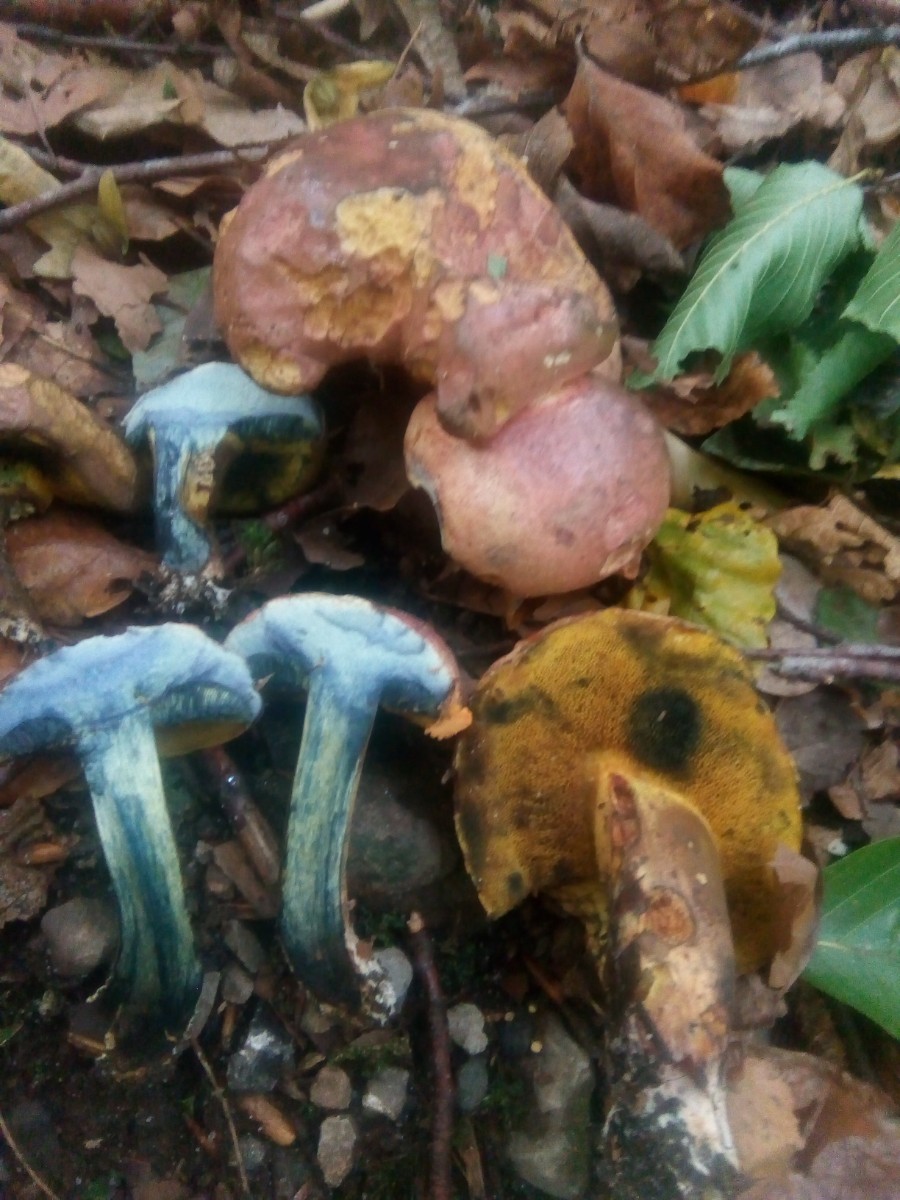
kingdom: Fungi
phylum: Basidiomycota
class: Agaricomycetes
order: Boletales
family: Boletaceae
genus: Cyanoboletus
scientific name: Cyanoboletus pulverulentus
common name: sortblånende rørhat
